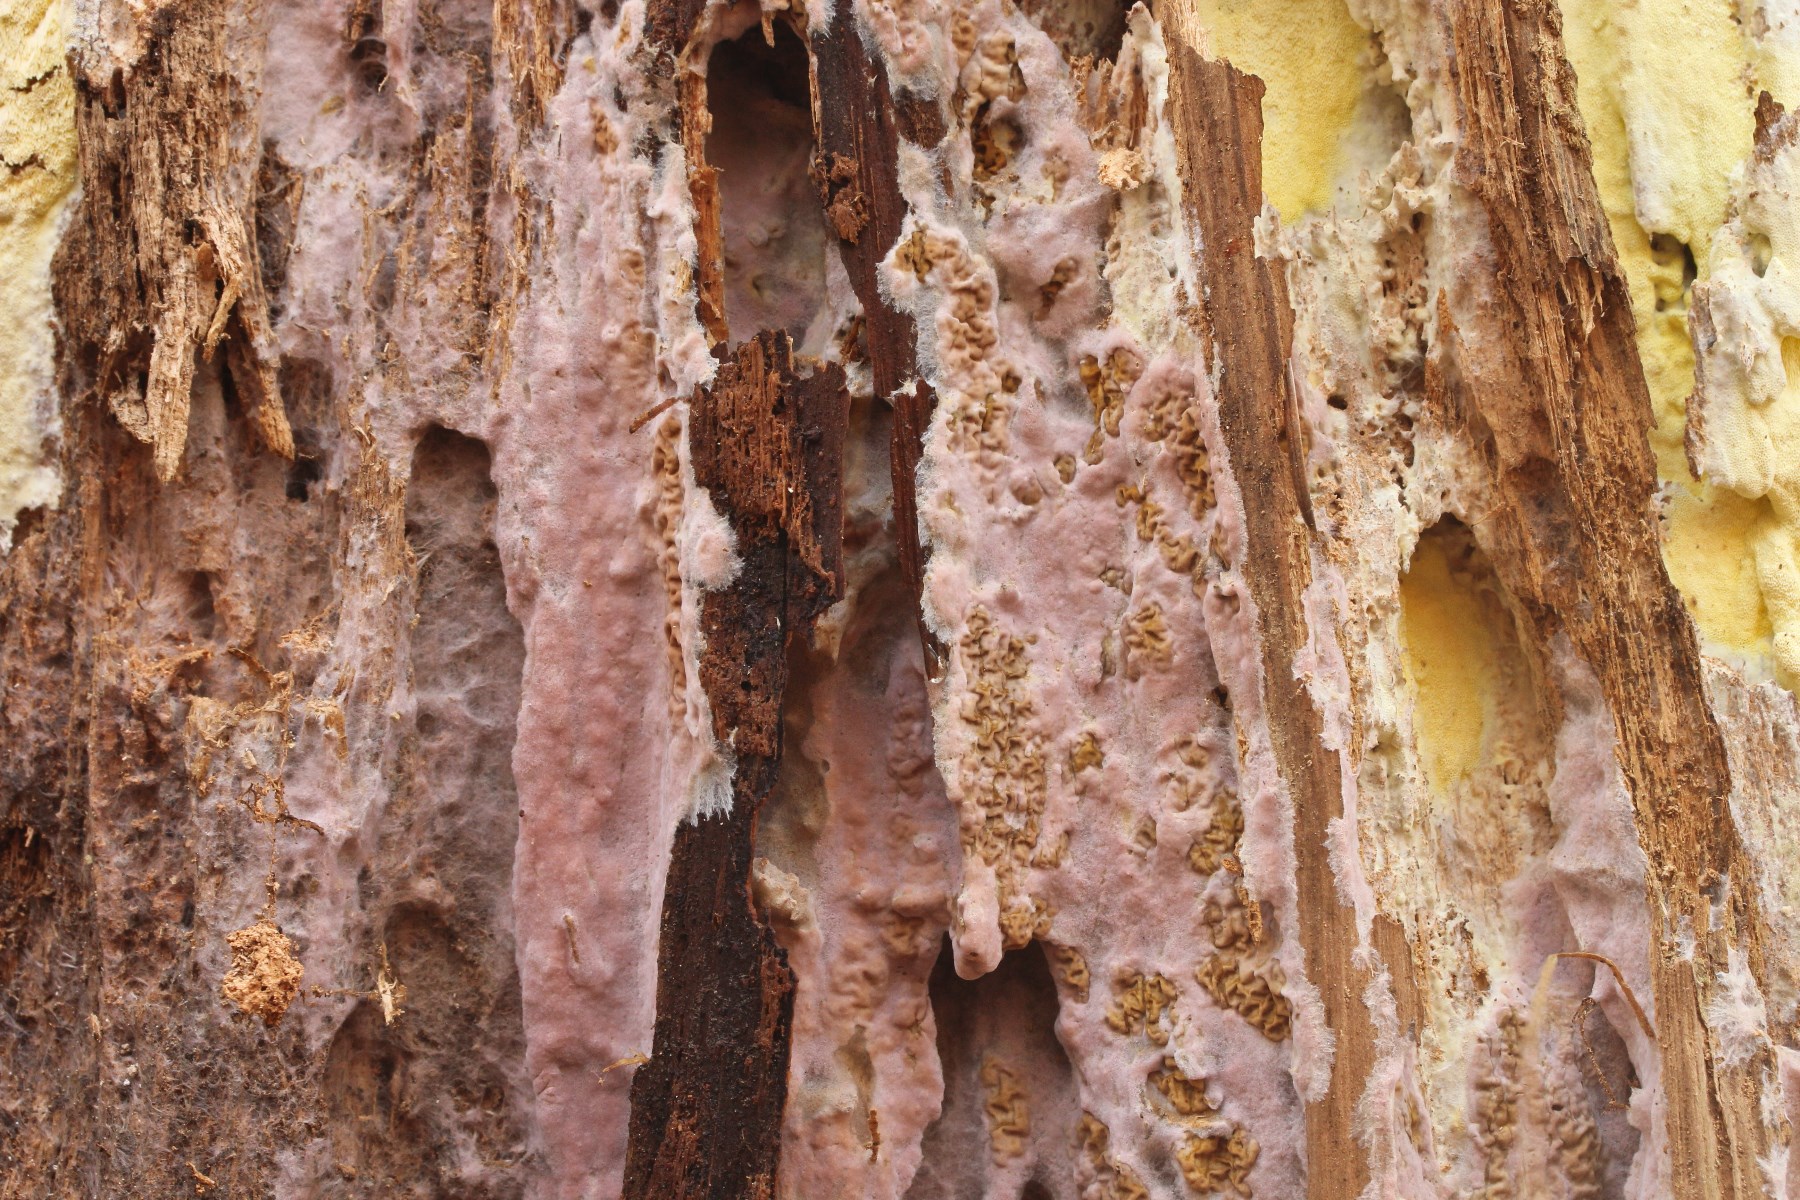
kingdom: Fungi
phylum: Basidiomycota
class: Agaricomycetes
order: Boletales
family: Serpulaceae
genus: Serpula
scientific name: Serpula himantioides
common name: tyndkødet hussvamp
